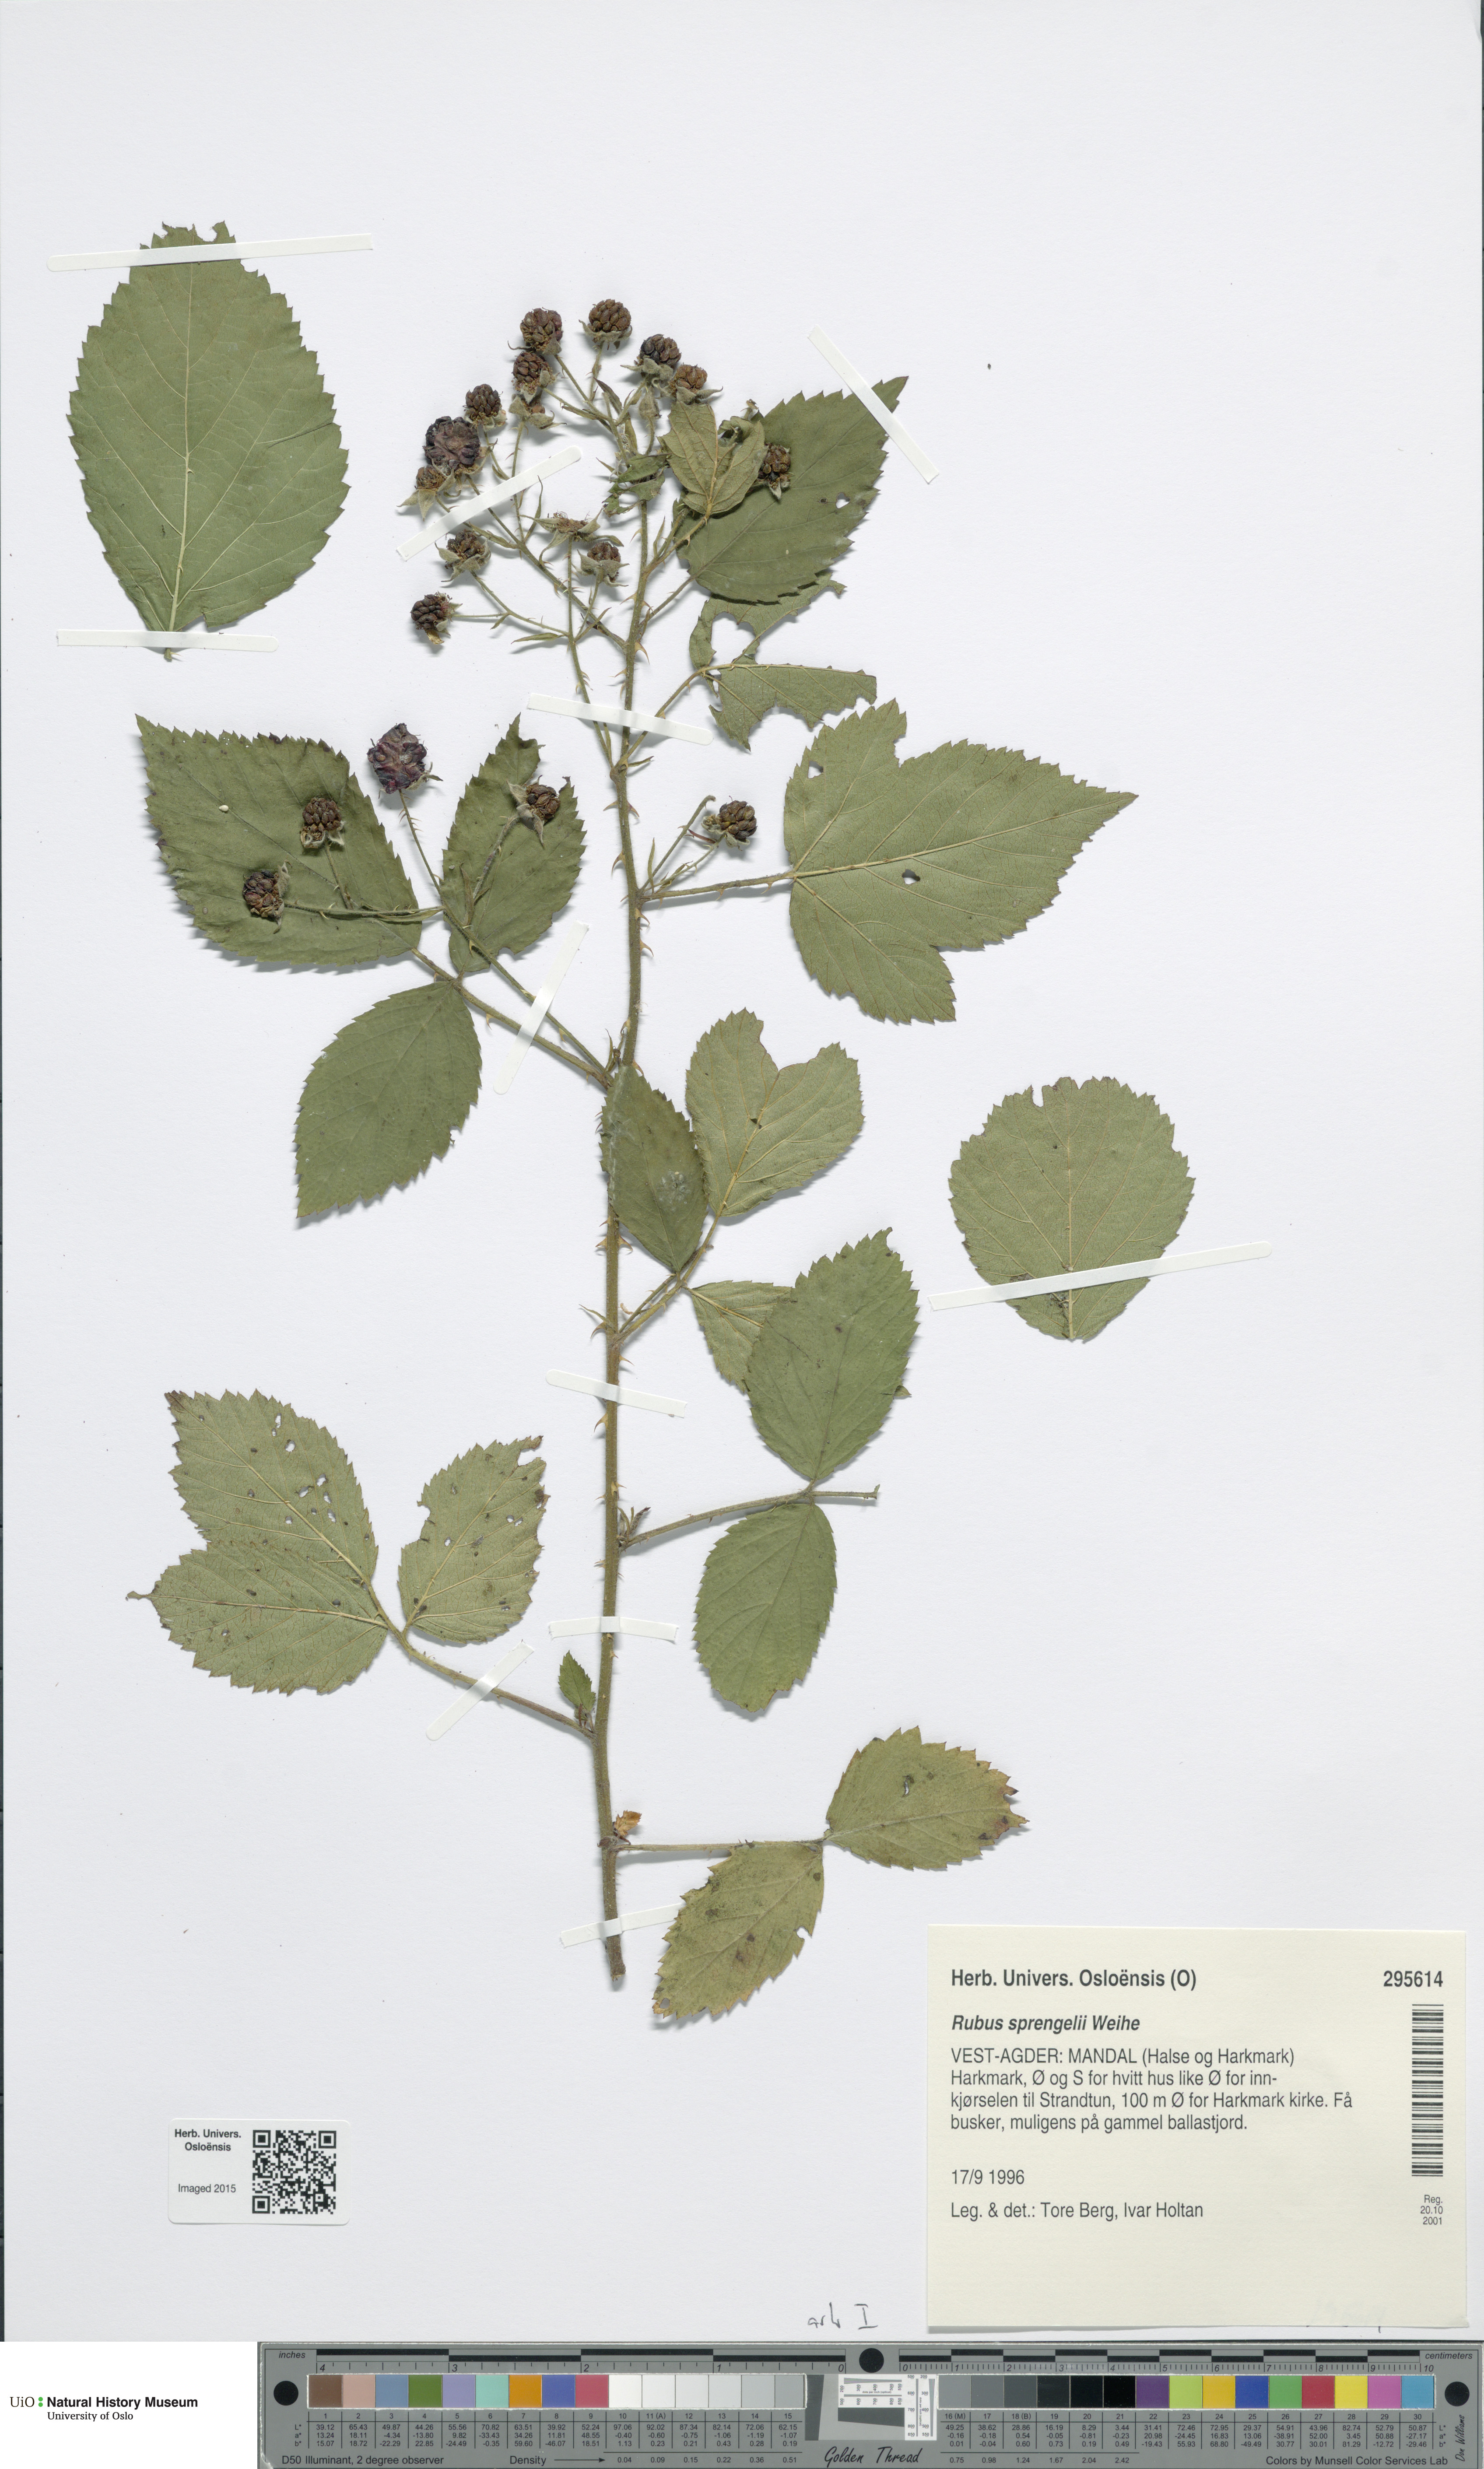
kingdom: Plantae
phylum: Tracheophyta
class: Magnoliopsida
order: Rosales
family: Rosaceae
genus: Rubus
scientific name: Rubus sprengelii
